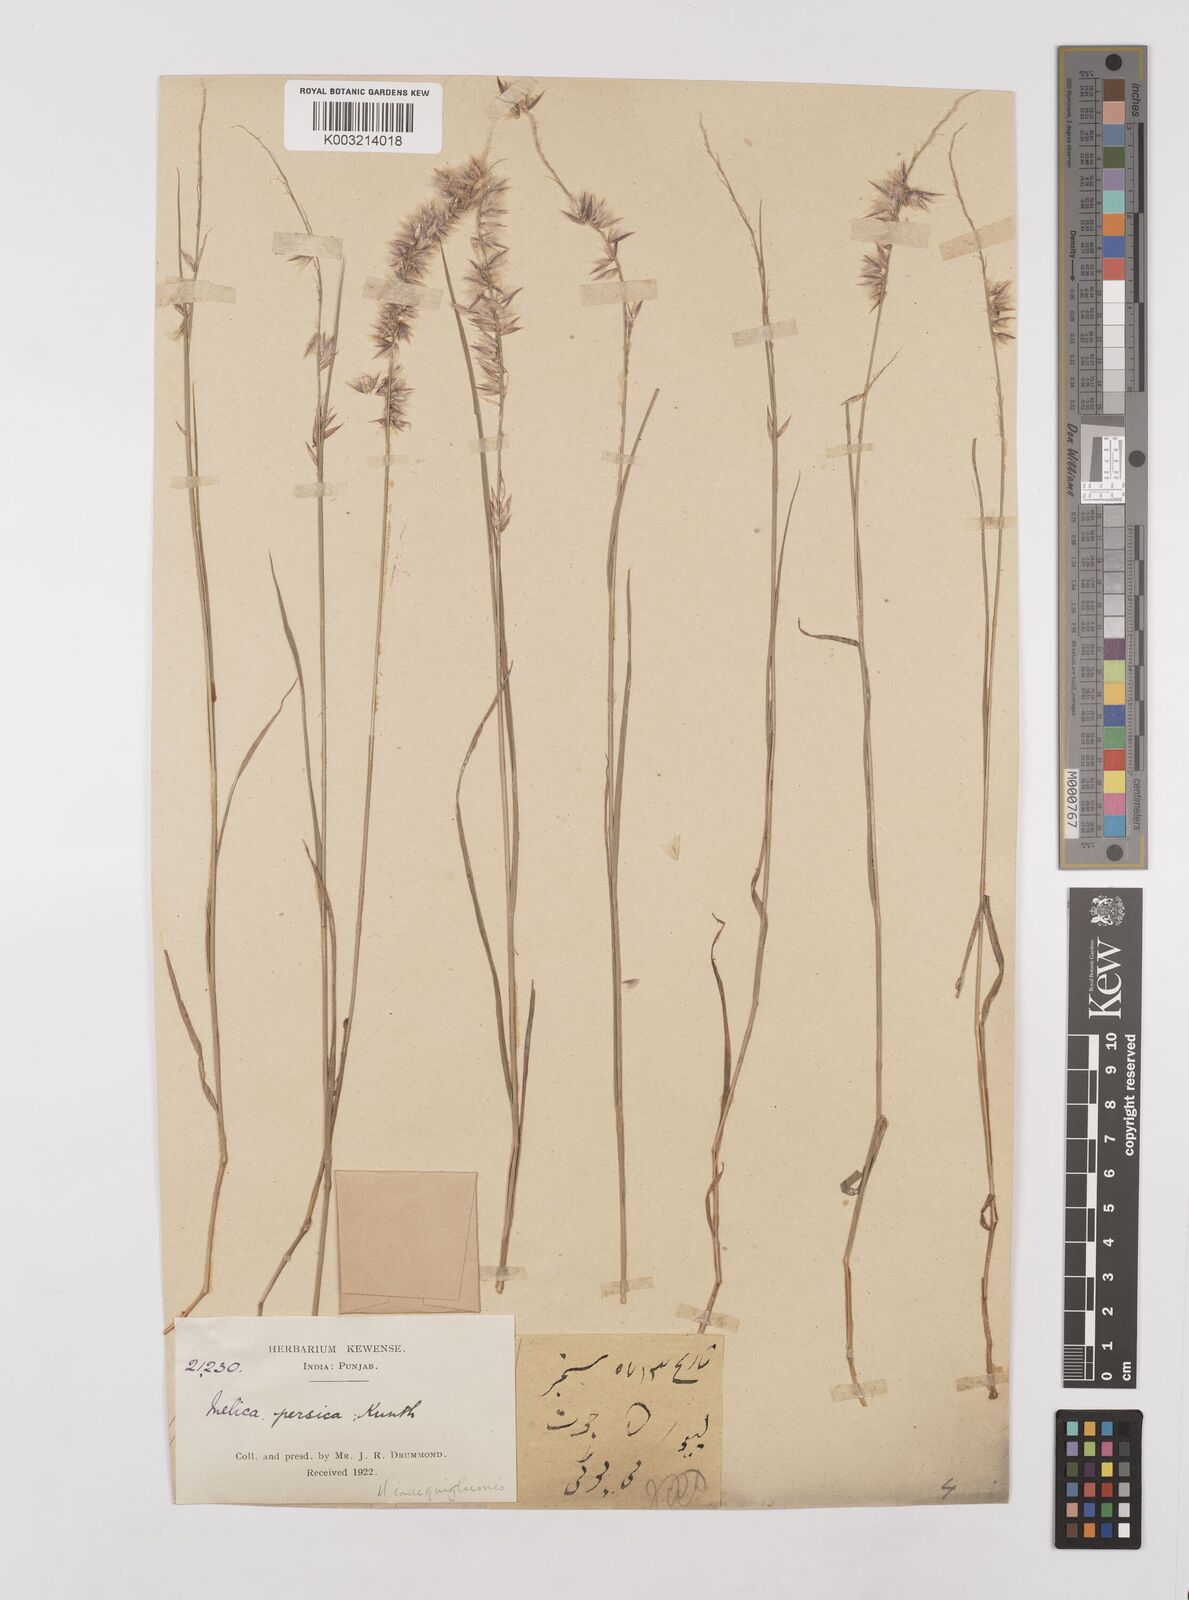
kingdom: Plantae
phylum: Tracheophyta
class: Liliopsida
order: Poales
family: Poaceae
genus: Melica
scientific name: Melica persica
